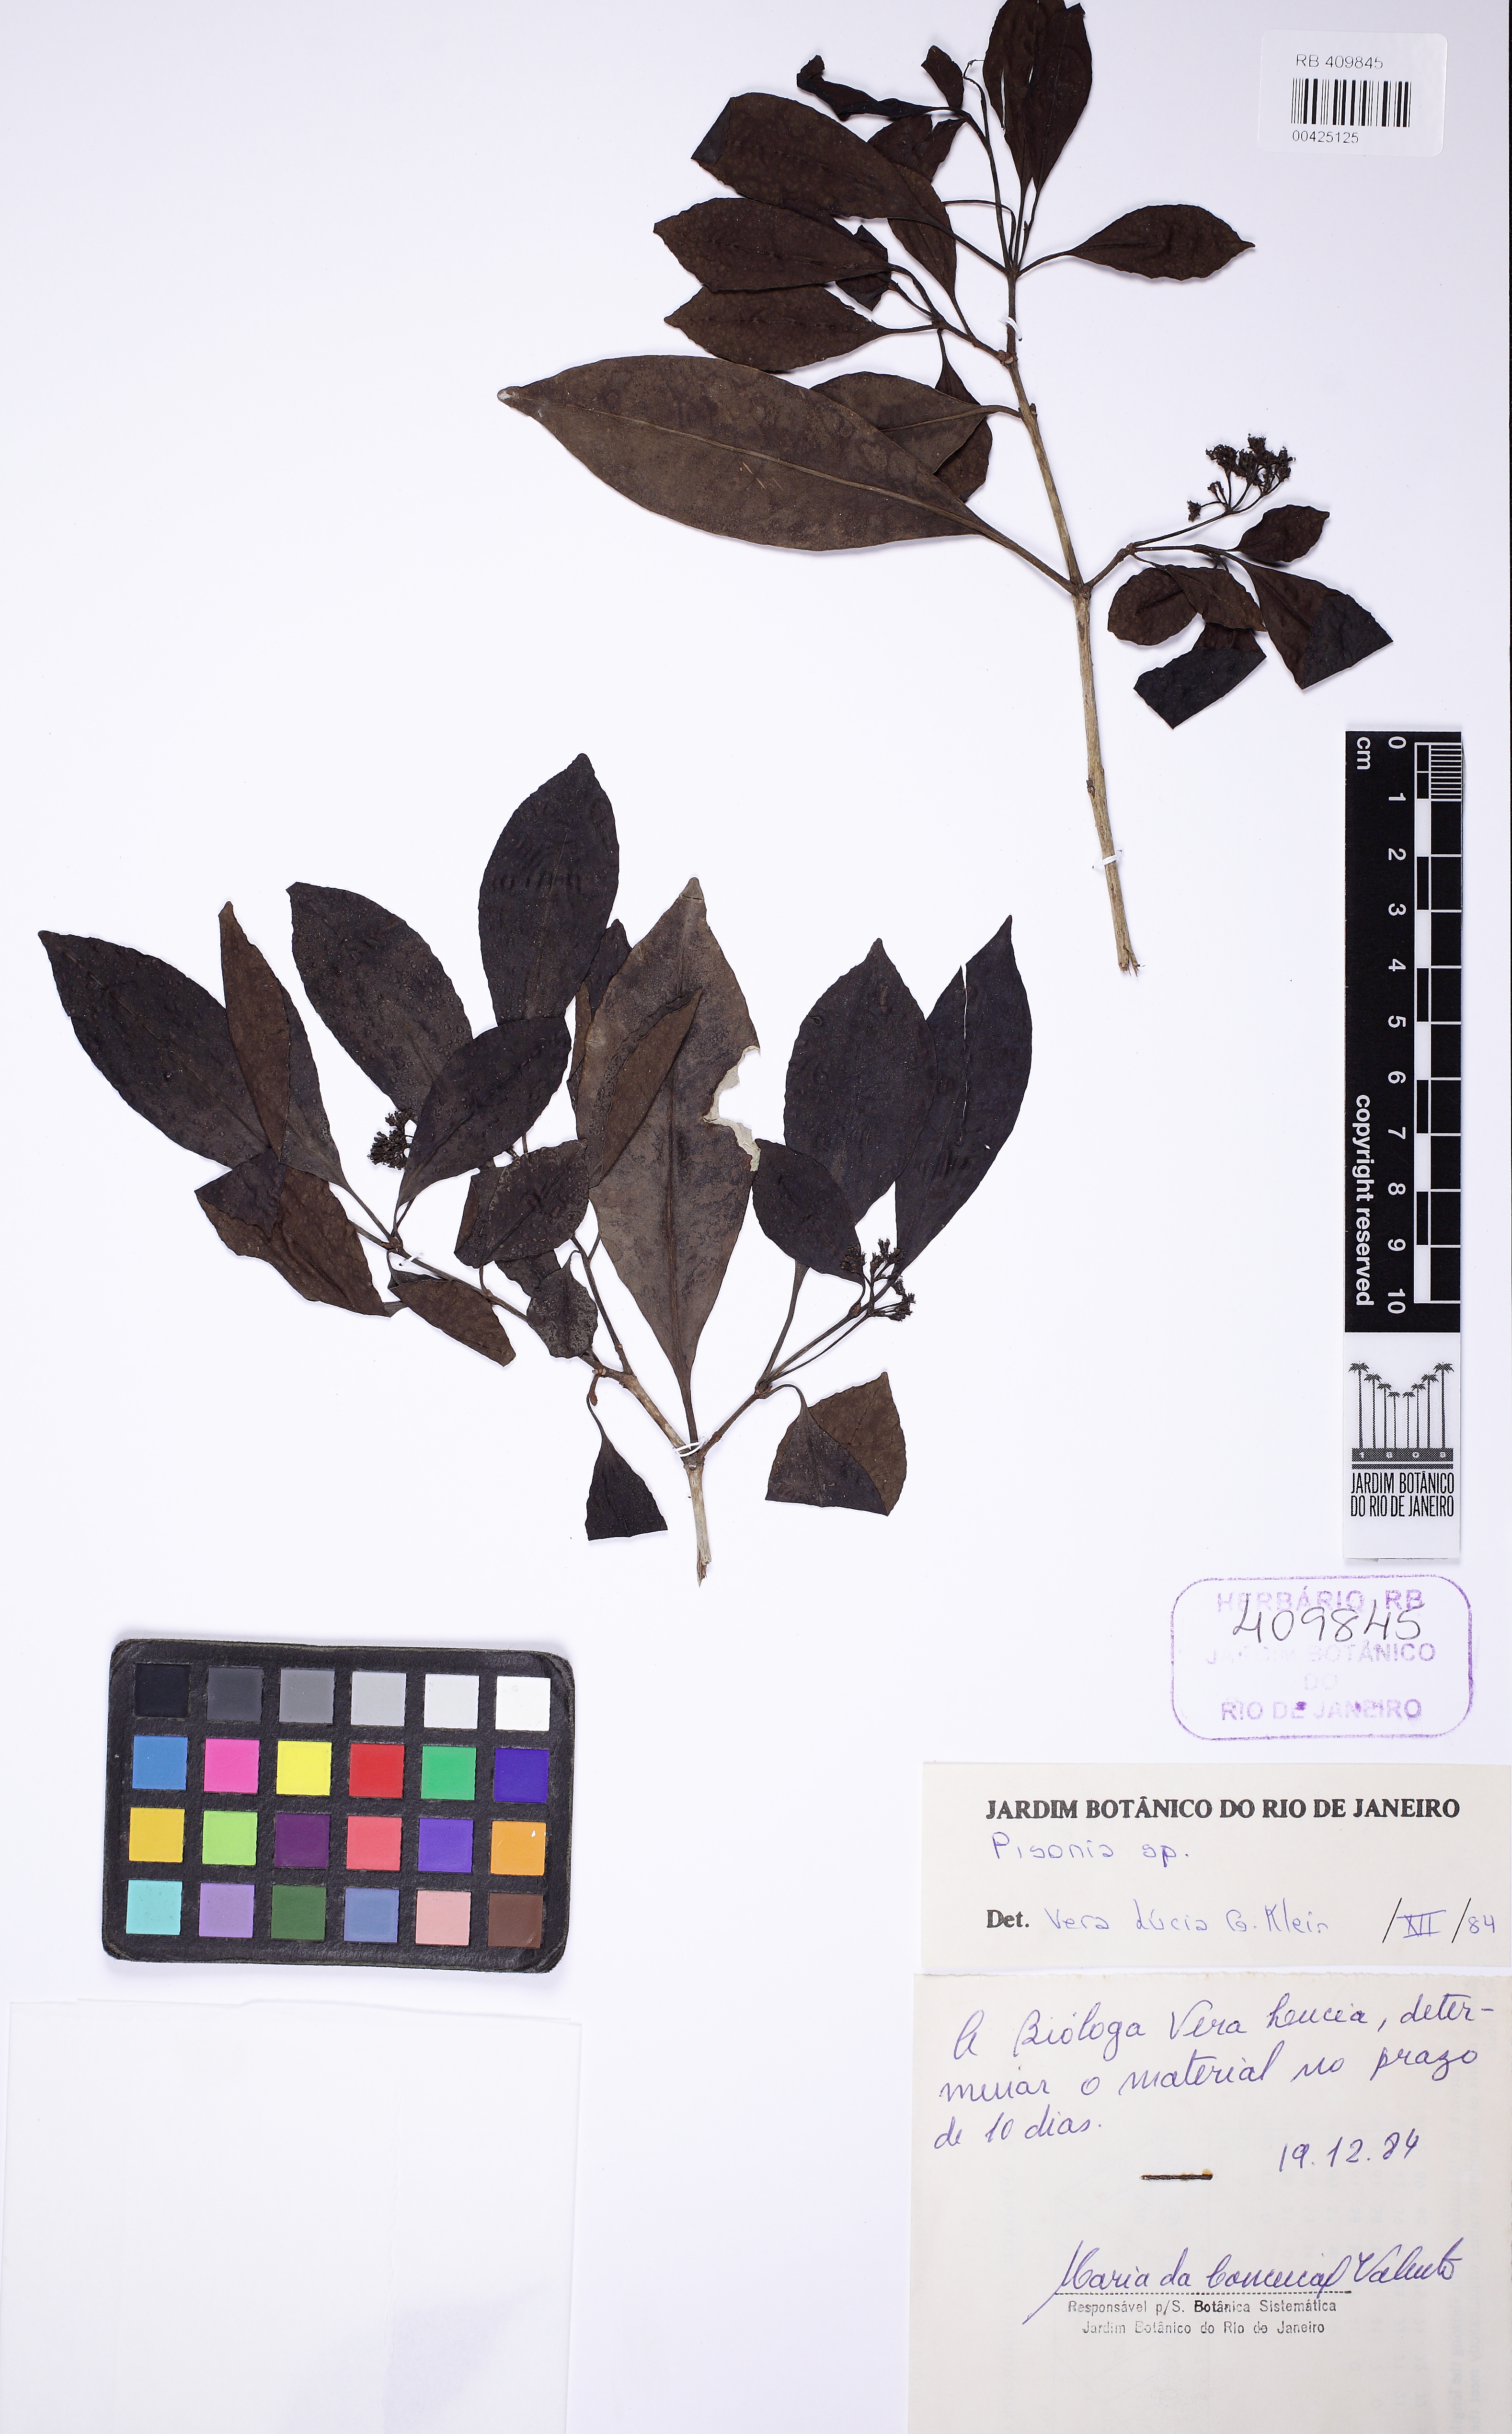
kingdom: Plantae
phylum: Tracheophyta
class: Magnoliopsida
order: Caryophyllales
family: Nyctaginaceae
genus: Pisonia
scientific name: Pisonia
